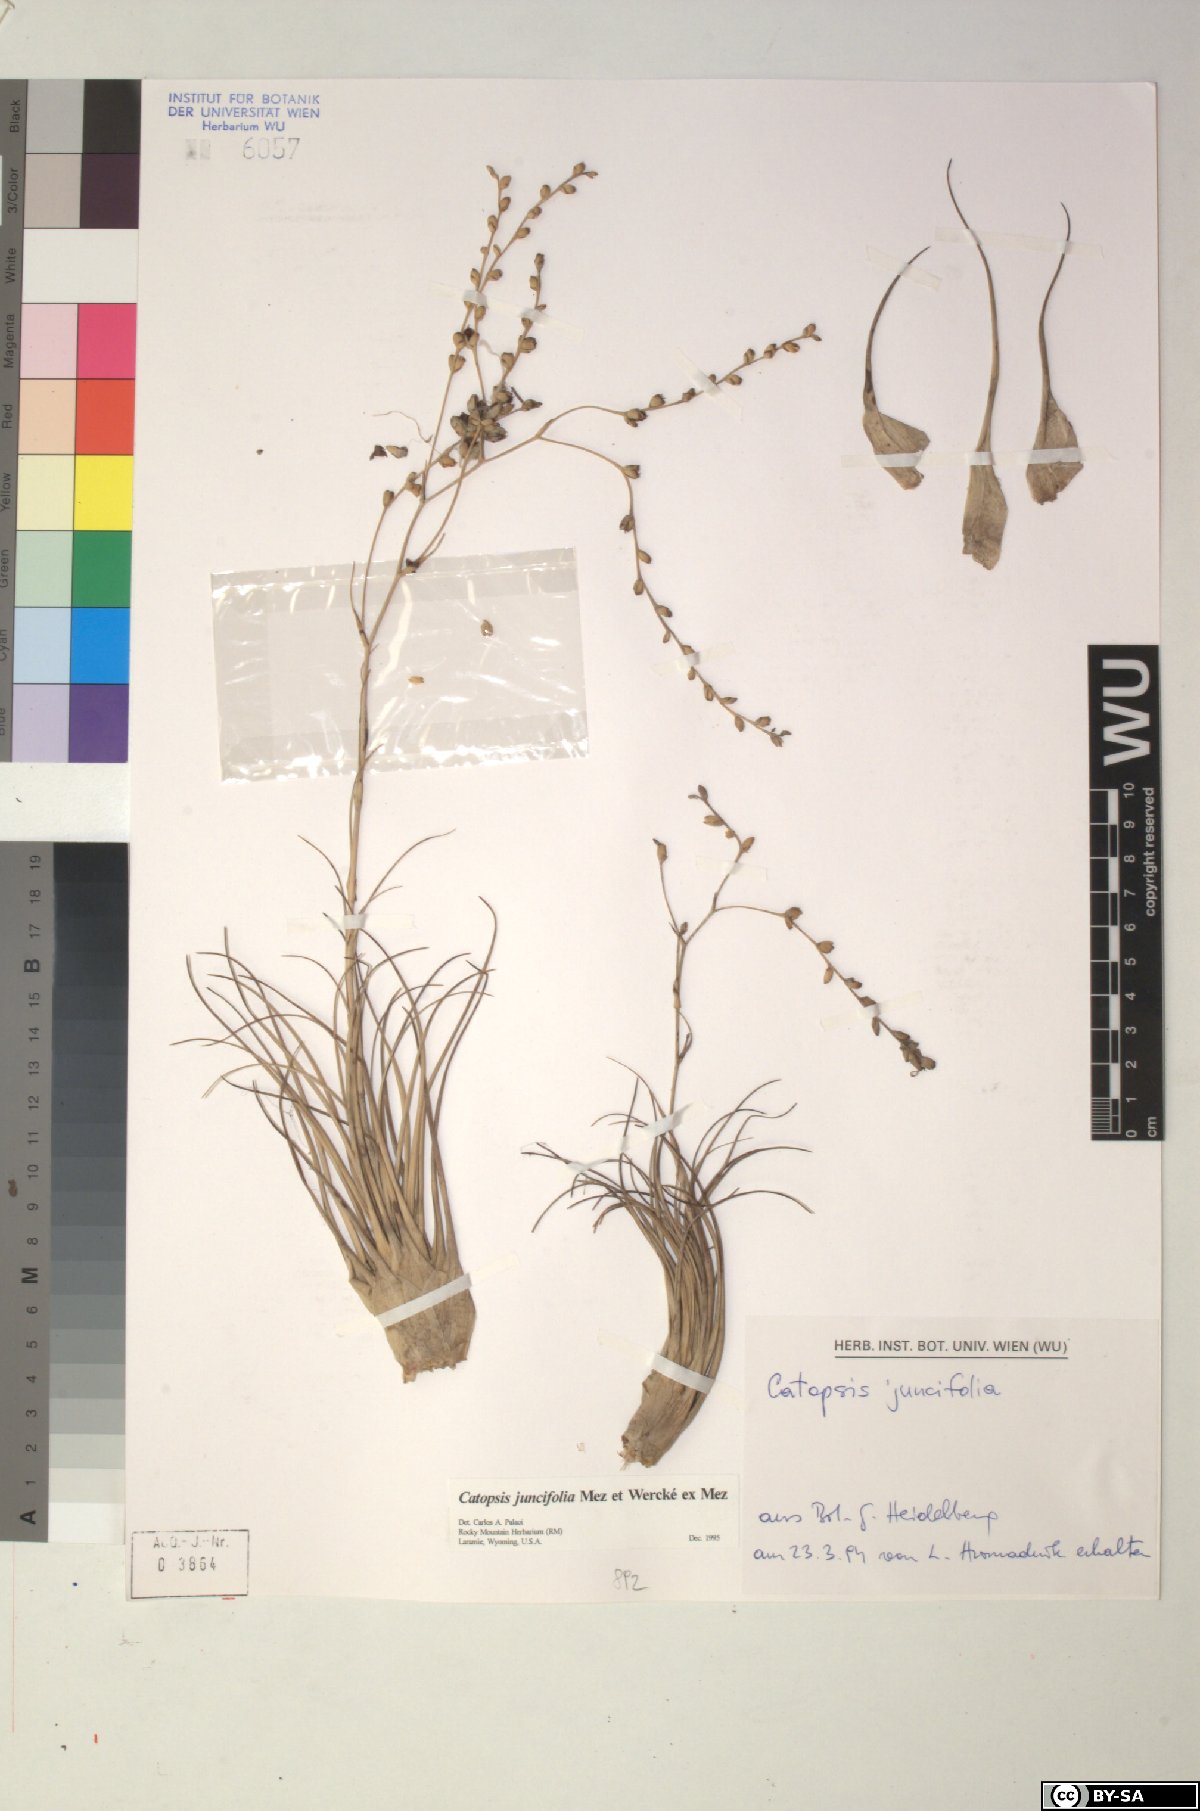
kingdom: Plantae
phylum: Tracheophyta
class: Liliopsida
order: Poales
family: Bromeliaceae
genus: Catopsis
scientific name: Catopsis juncifolia
